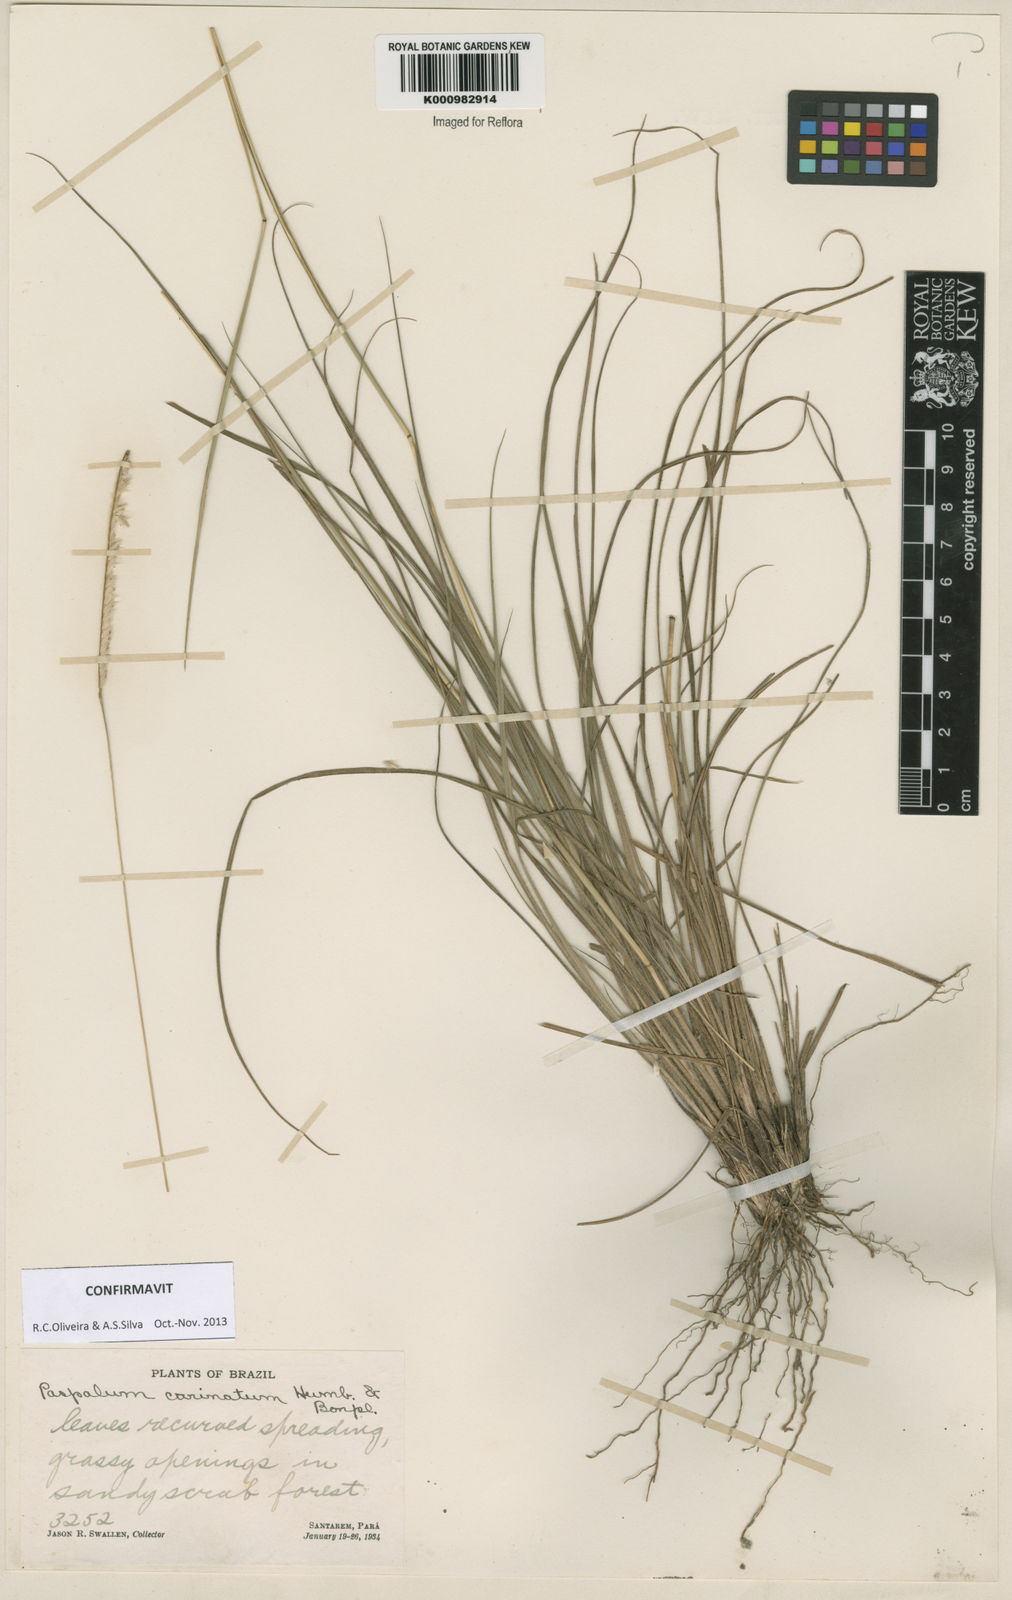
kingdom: Plantae
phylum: Tracheophyta
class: Liliopsida
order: Poales
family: Poaceae
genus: Paspalum
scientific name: Paspalum
